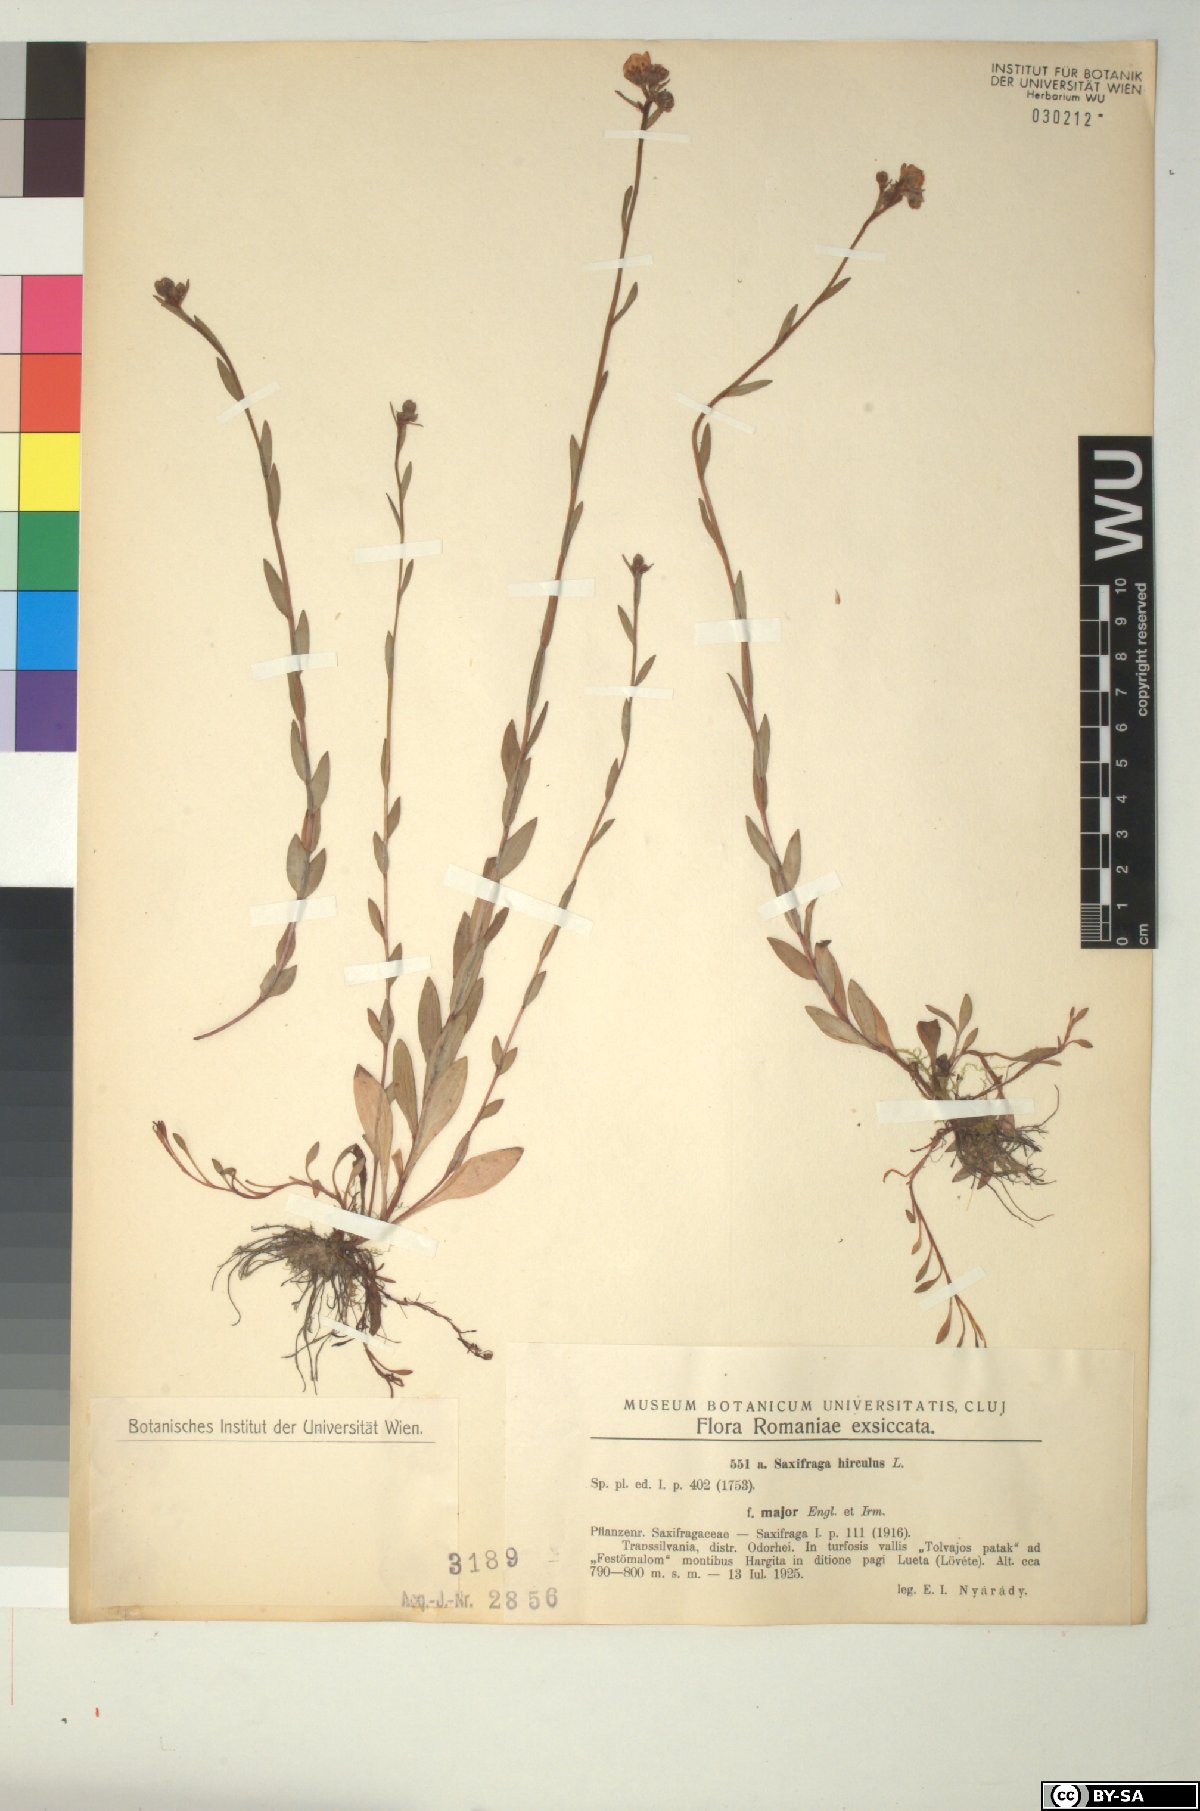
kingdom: Plantae
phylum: Tracheophyta
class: Magnoliopsida
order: Saxifragales
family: Saxifragaceae
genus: Saxifraga
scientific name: Saxifraga hirculus
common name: Yellow marsh saxifrage
